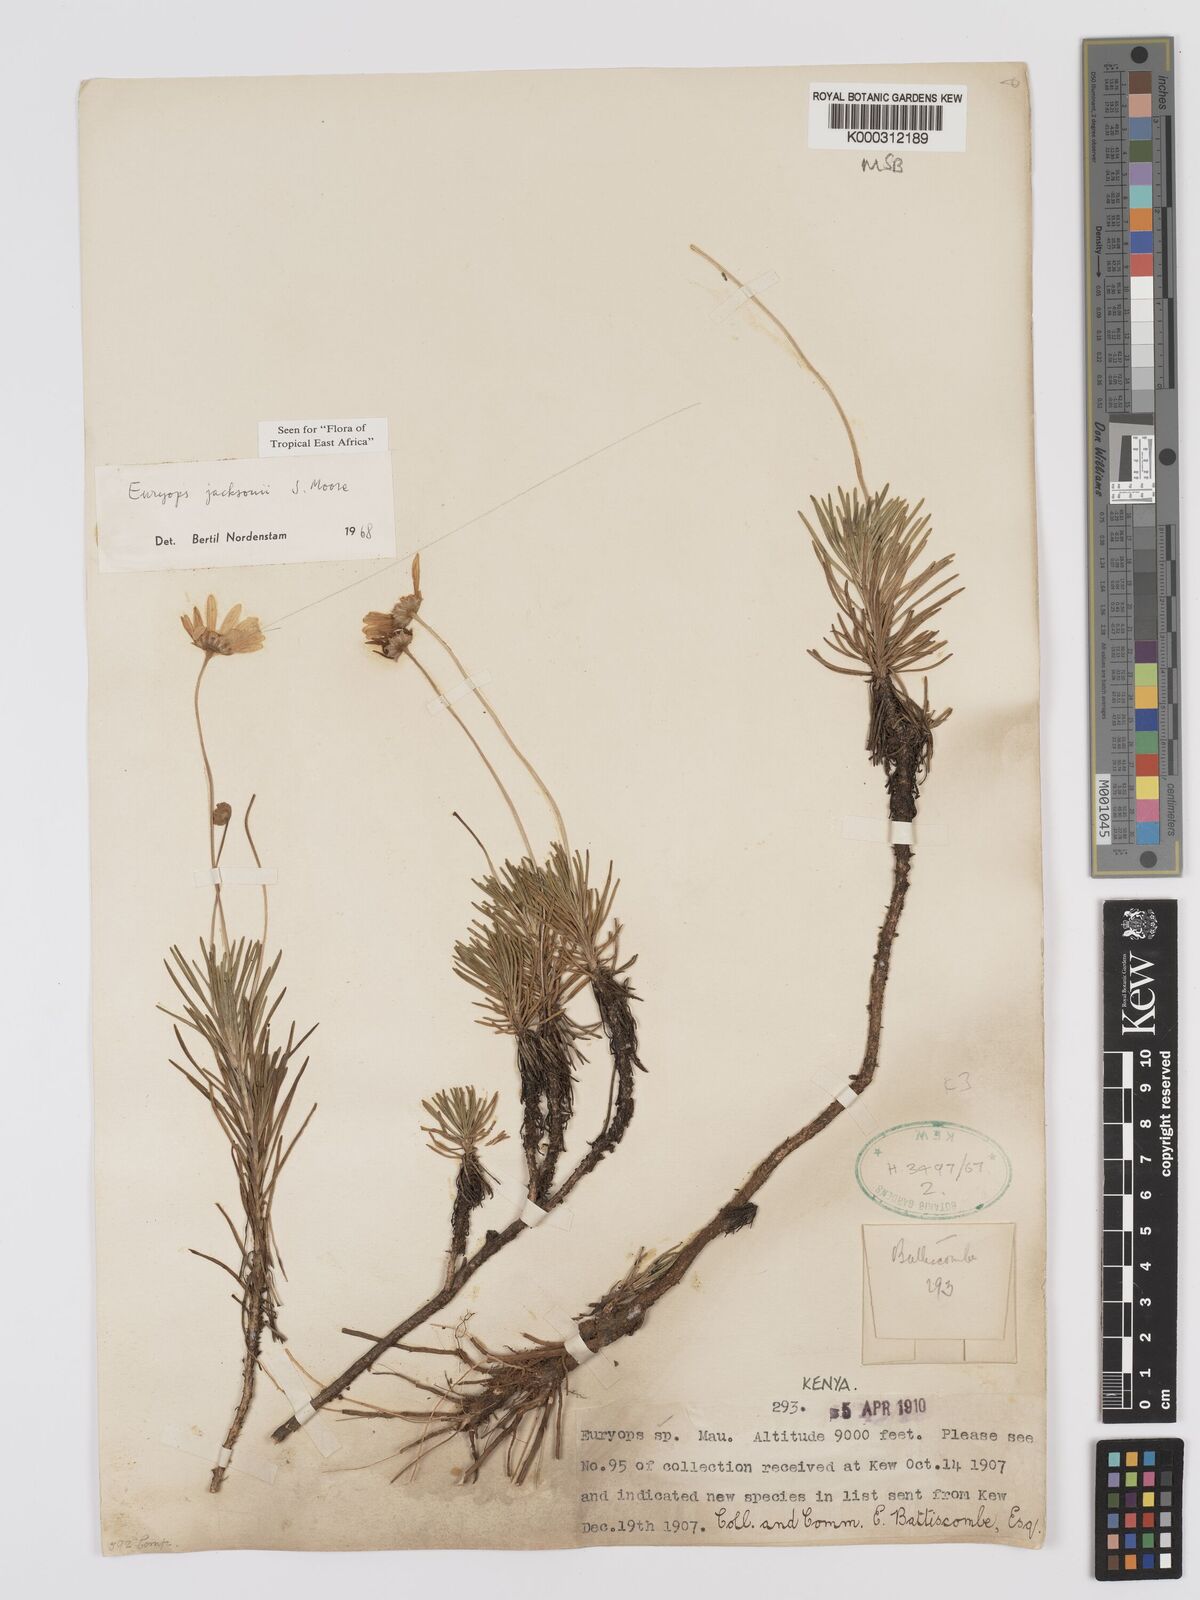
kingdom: Plantae
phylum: Tracheophyta
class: Magnoliopsida
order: Asterales
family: Asteraceae
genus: Euryops
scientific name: Euryops jacksonii
